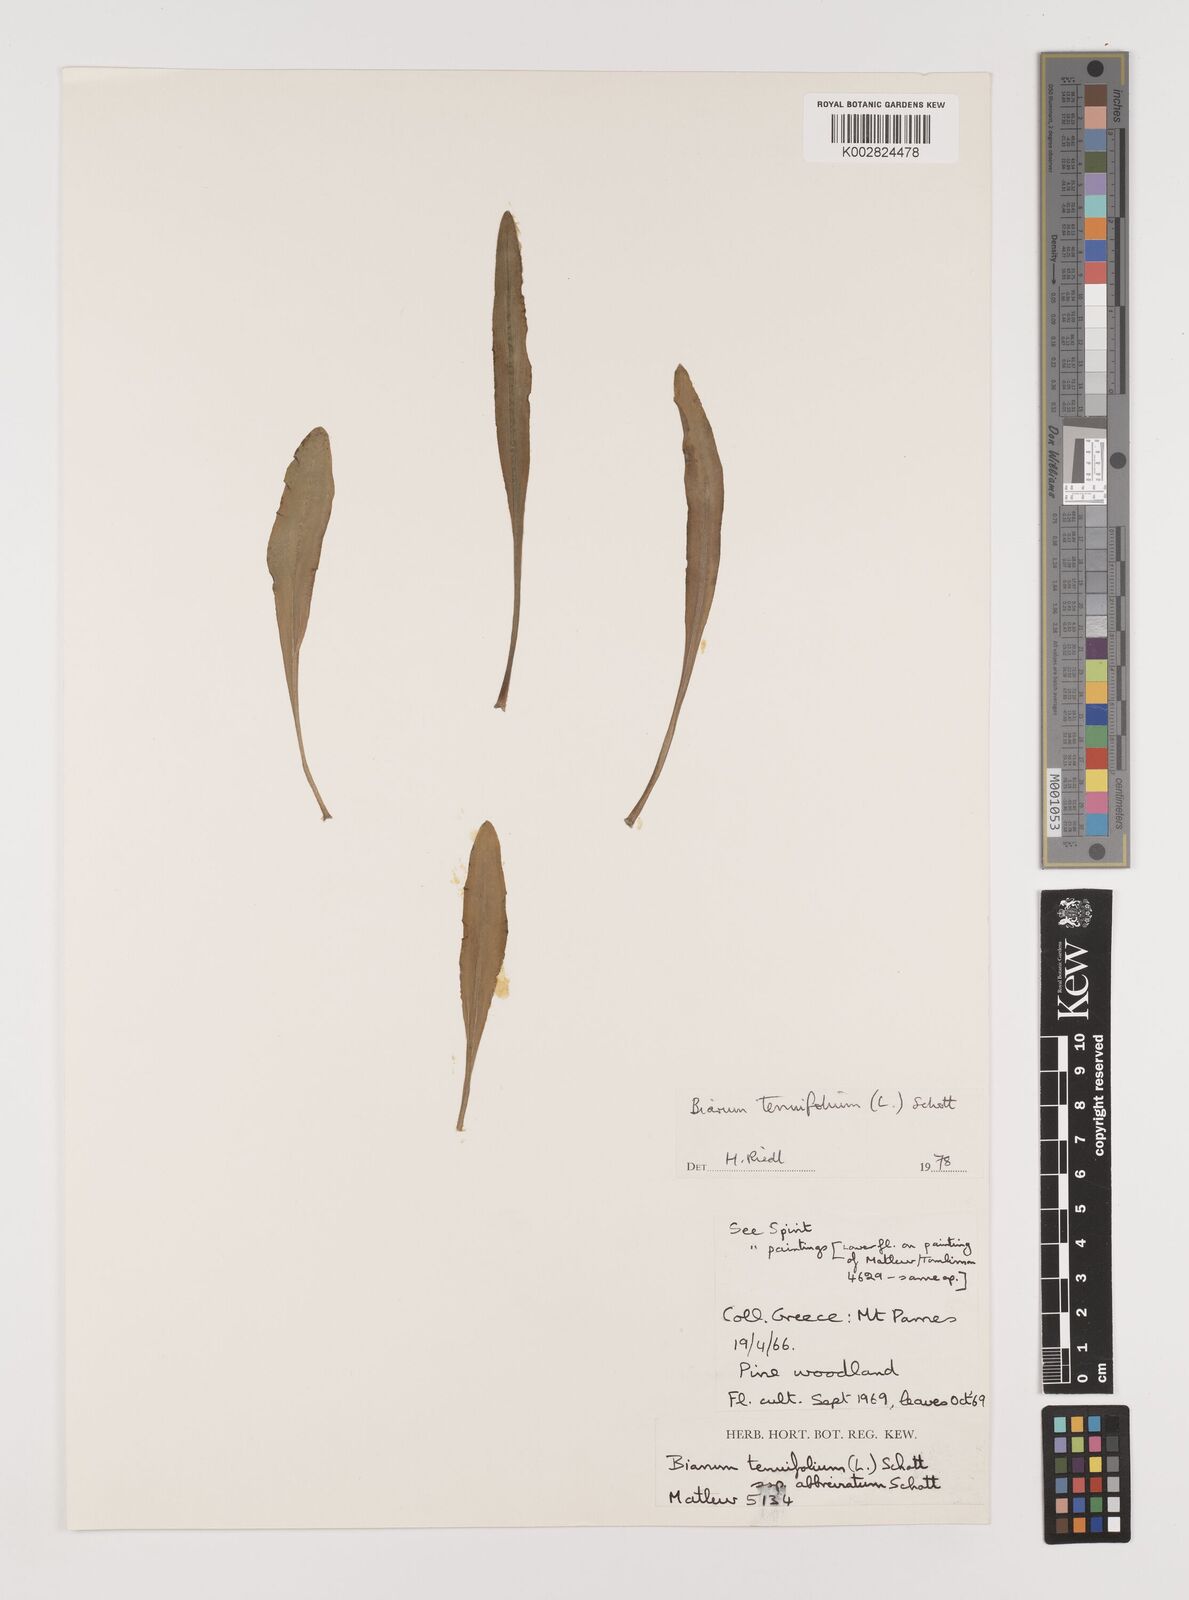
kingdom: Plantae
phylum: Tracheophyta
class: Liliopsida
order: Alismatales
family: Araceae
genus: Biarum
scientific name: Biarum tenuifolium
